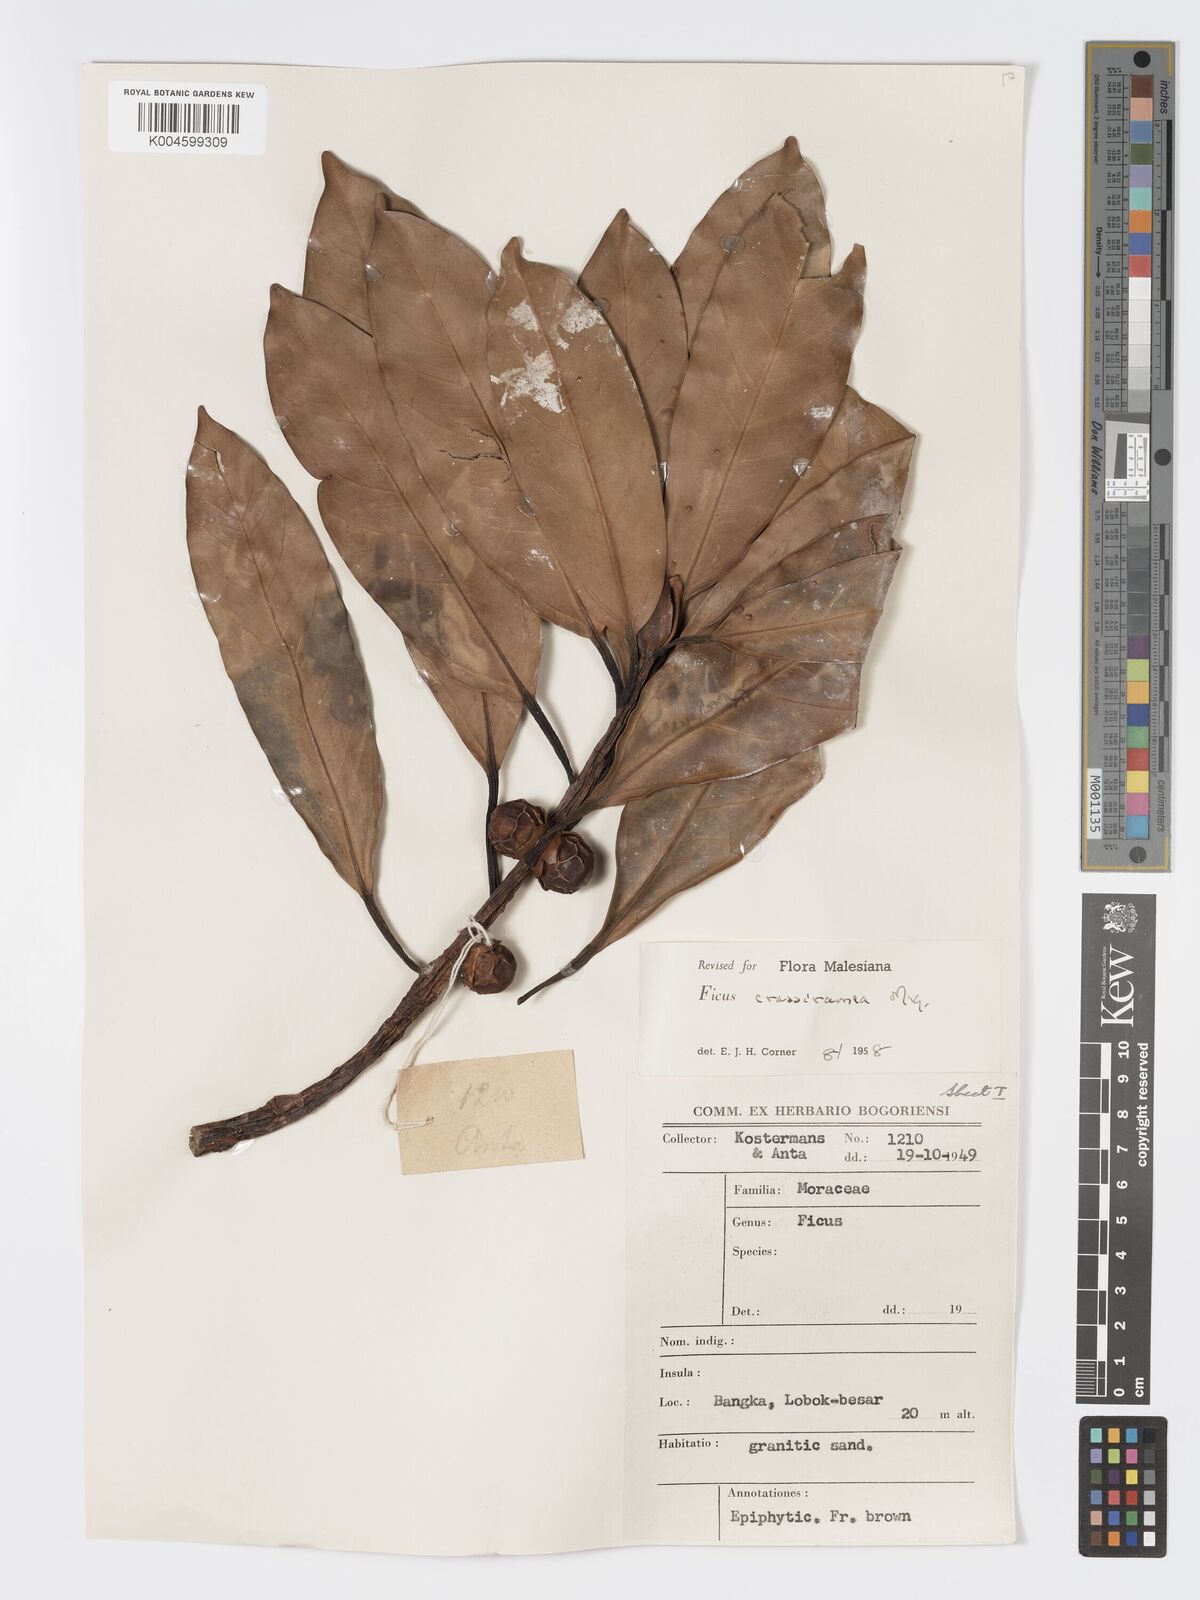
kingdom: Plantae
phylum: Tracheophyta
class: Magnoliopsida
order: Rosales
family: Moraceae
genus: Ficus
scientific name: Ficus crassiramea
